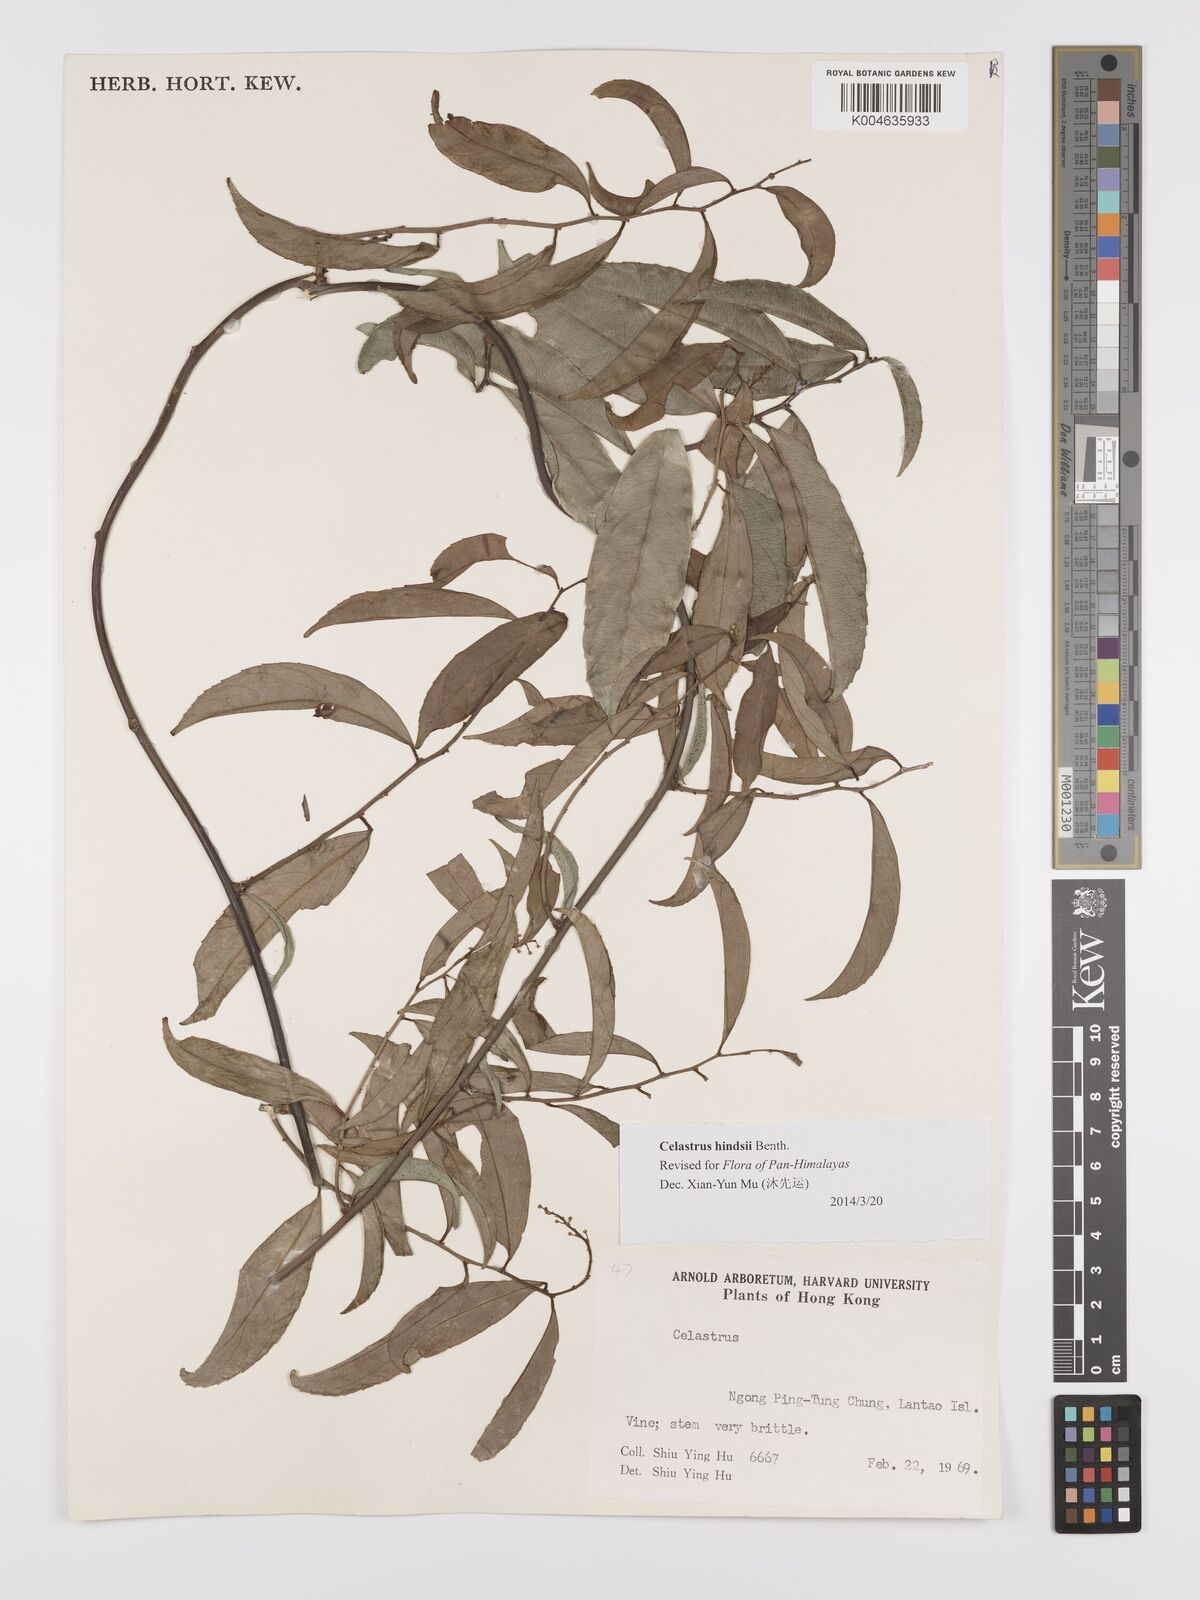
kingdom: Plantae
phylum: Tracheophyta
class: Magnoliopsida
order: Celastrales
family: Celastraceae
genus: Celastrus
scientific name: Celastrus hindsii
